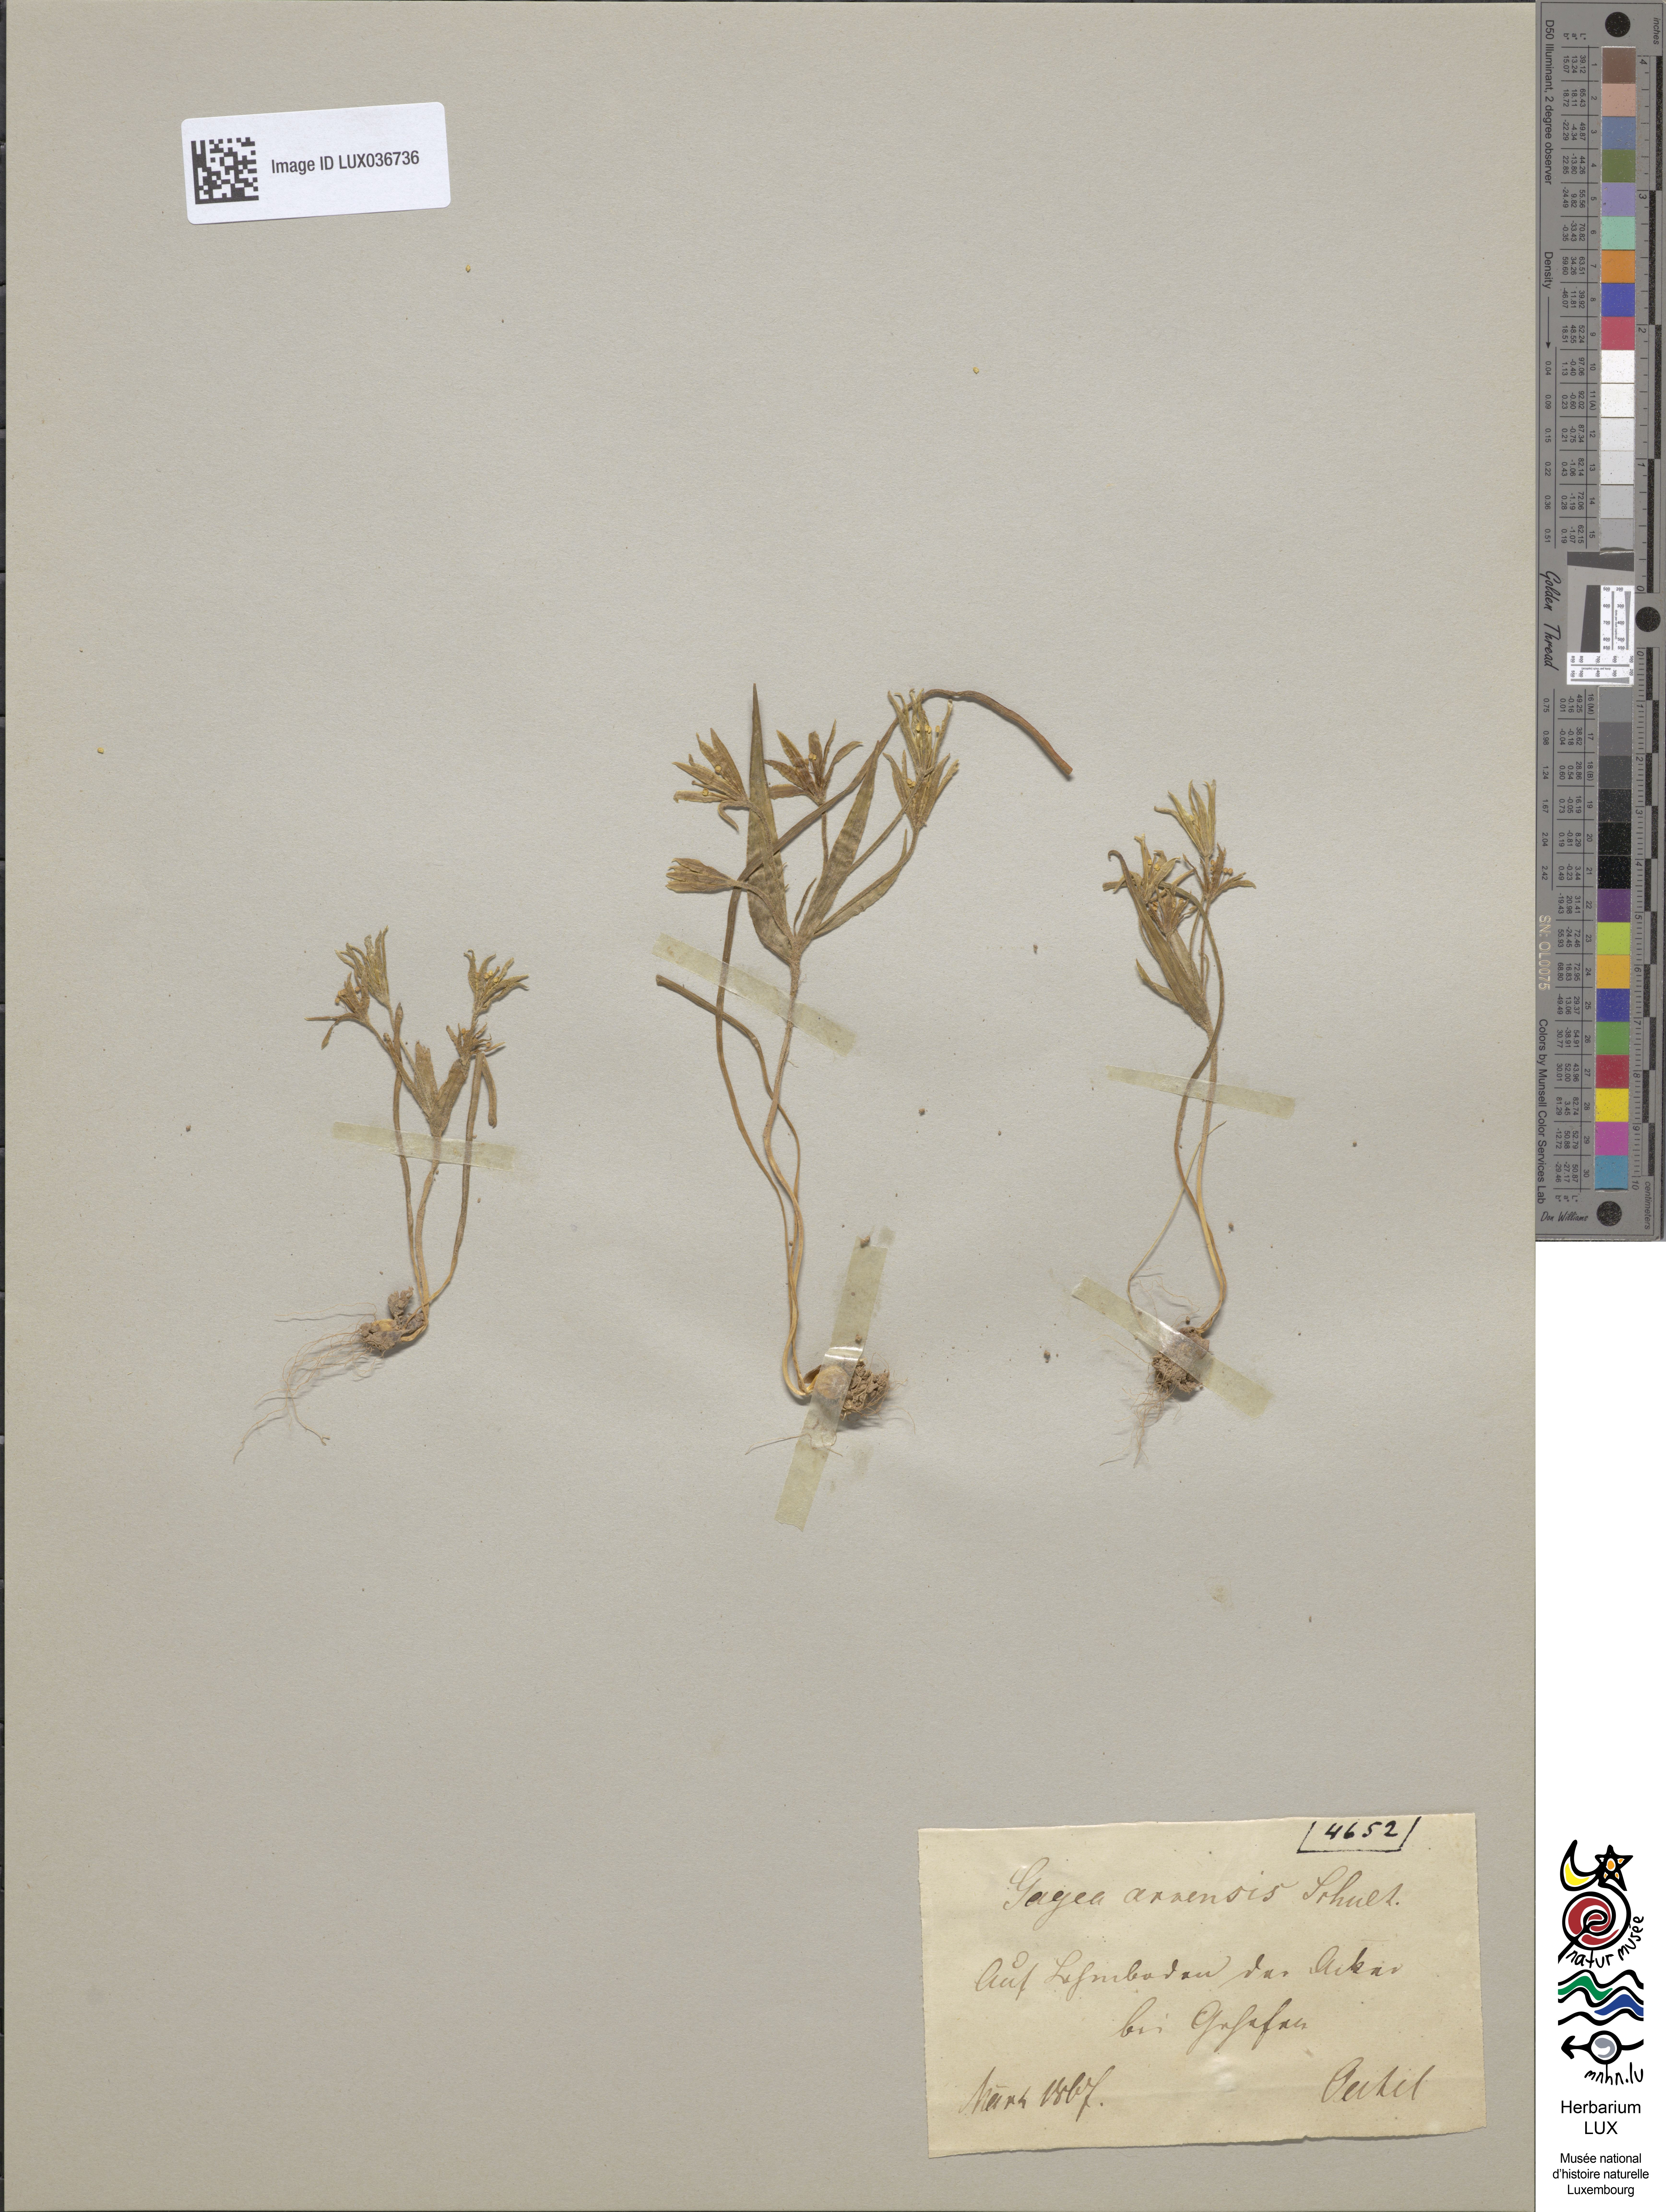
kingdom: Plantae
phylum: Tracheophyta
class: Liliopsida
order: Liliales
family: Liliaceae
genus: Gagea
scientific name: Gagea minima
